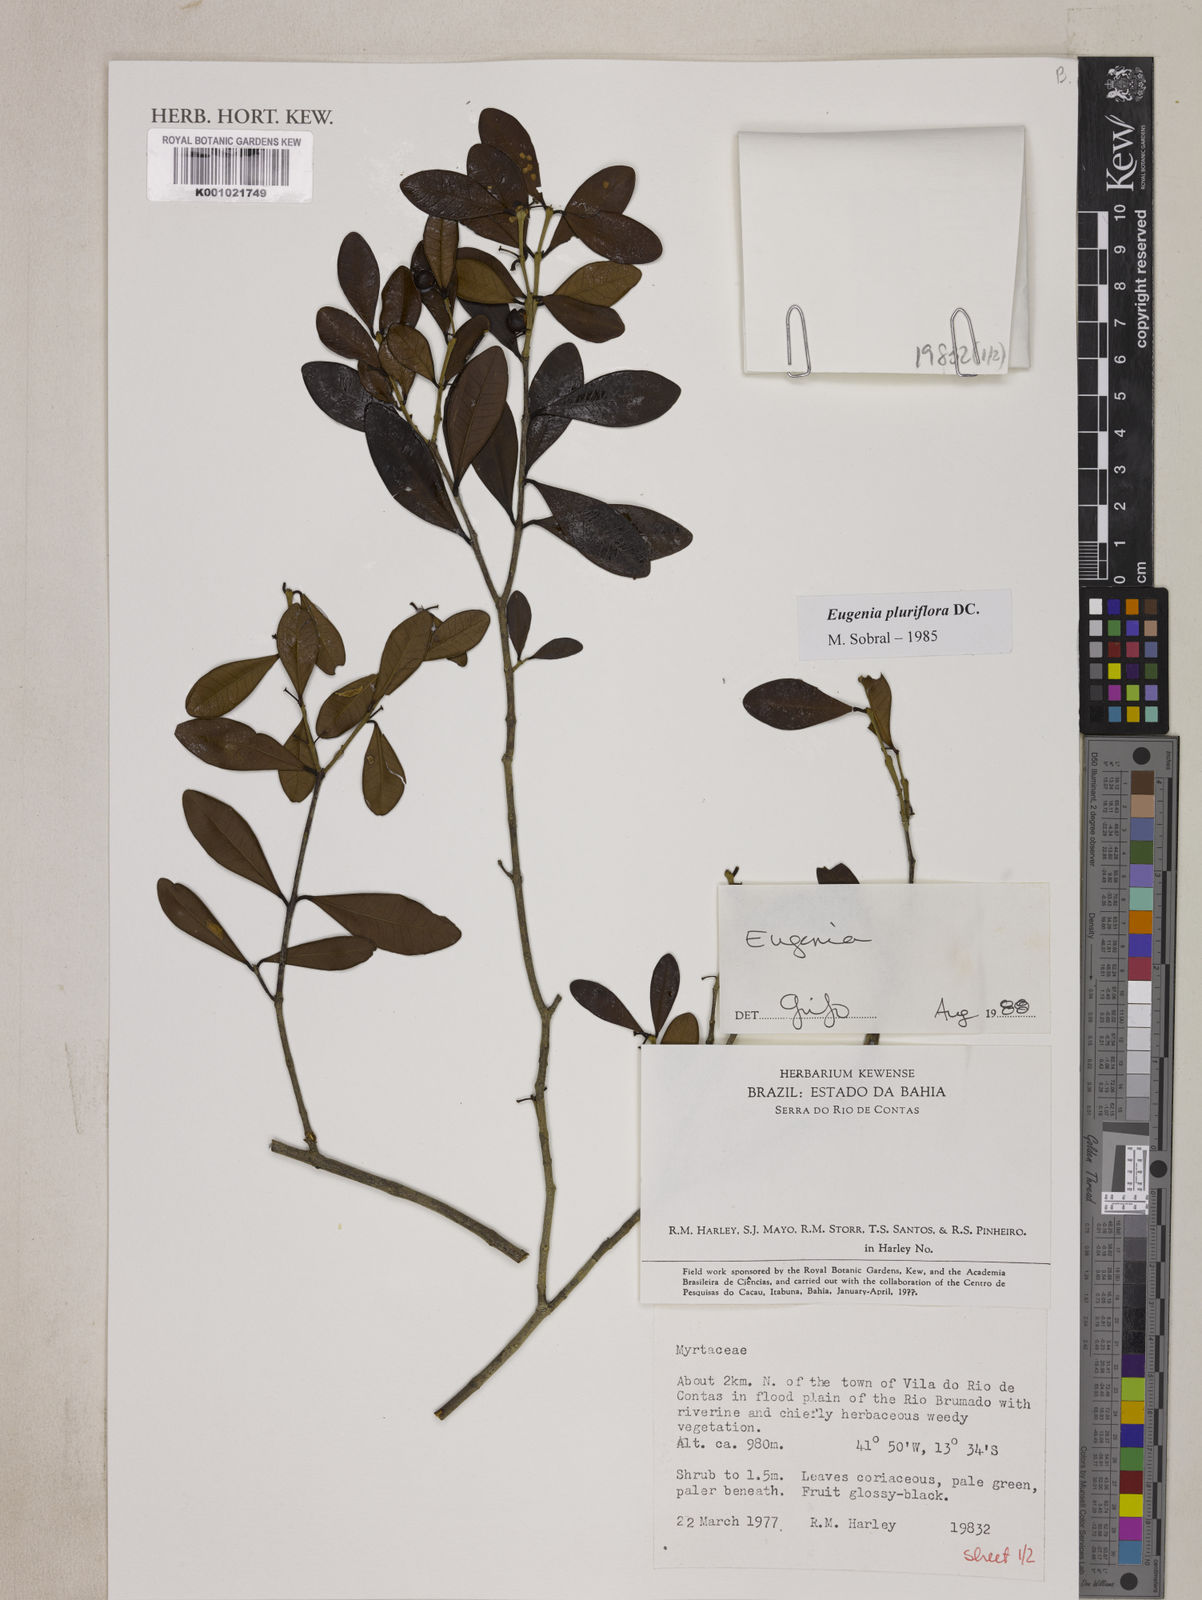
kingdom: Plantae
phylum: Tracheophyta
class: Magnoliopsida
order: Myrtales
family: Myrtaceae
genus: Eugenia
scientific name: Eugenia pluriflora
